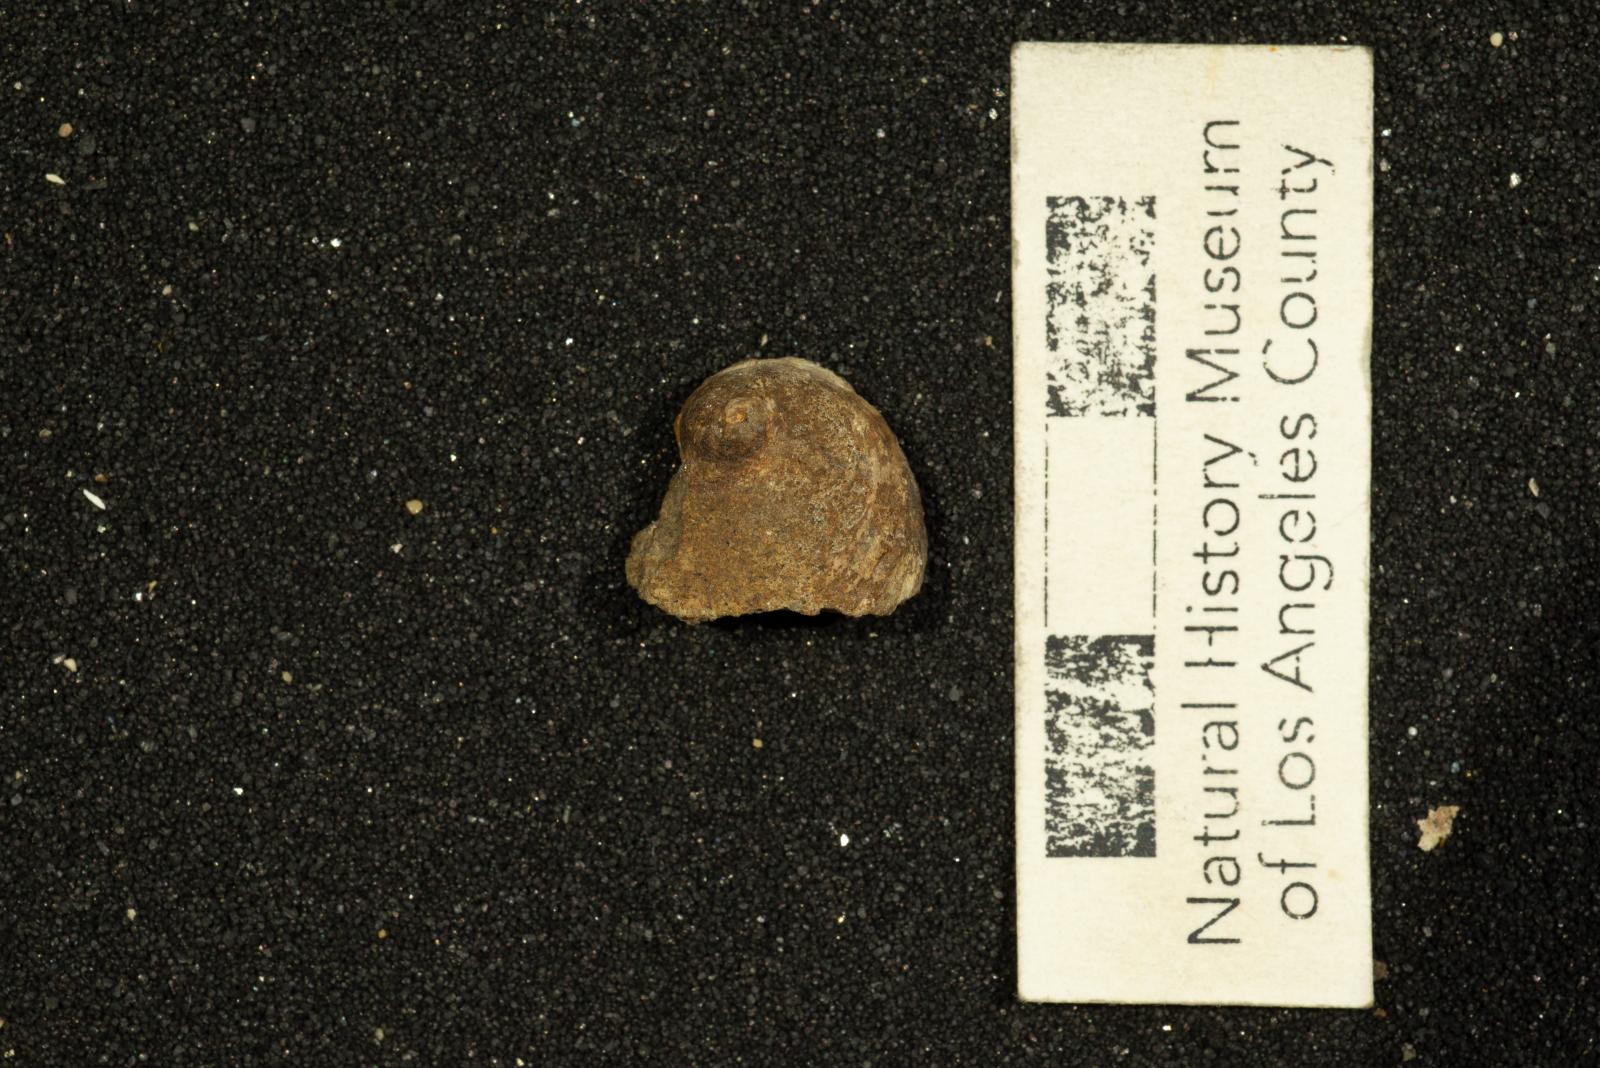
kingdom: Animalia
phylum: Mollusca
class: Gastropoda
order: Littorinimorpha
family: Calyptraeidae
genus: Lysis
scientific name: Lysis jalamaca
